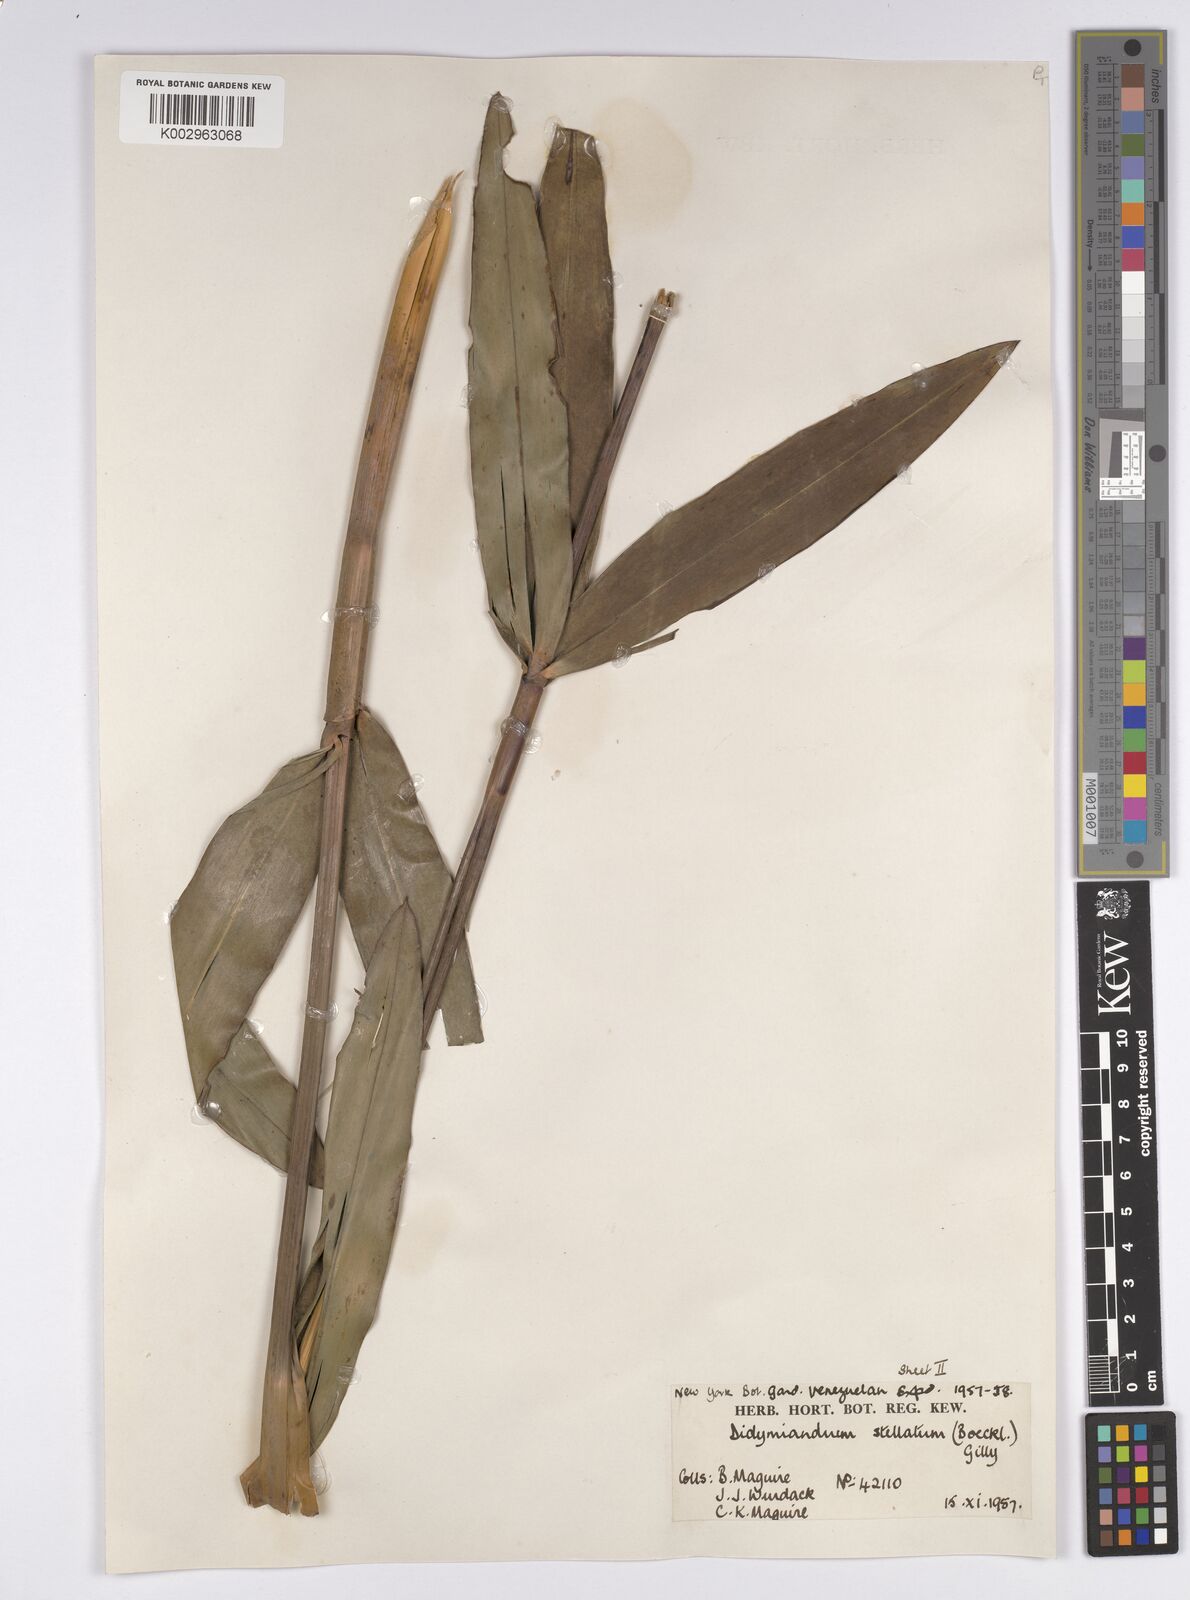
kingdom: Plantae
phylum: Tracheophyta
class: Liliopsida
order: Poales
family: Cyperaceae
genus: Didymiandrum
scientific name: Didymiandrum stellatum
